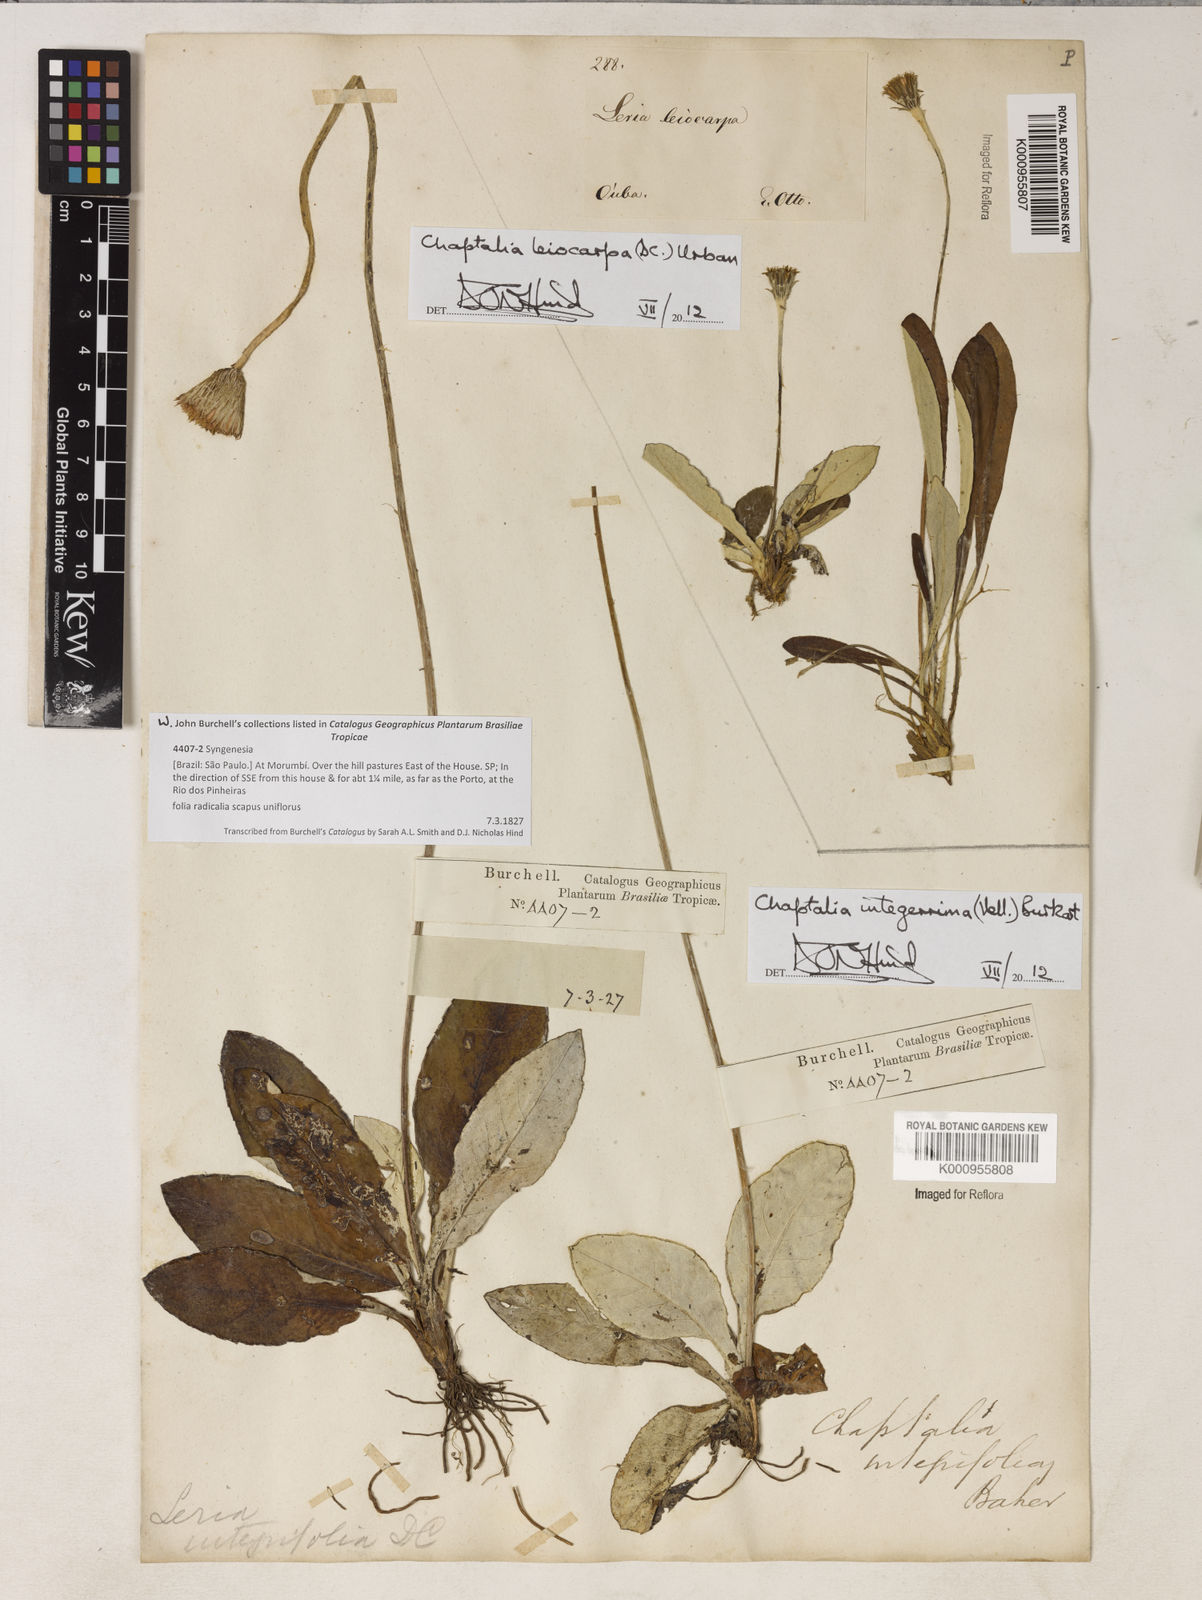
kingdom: Plantae
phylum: Tracheophyta
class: Magnoliopsida
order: Asterales
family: Asteraceae
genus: Chaptalia
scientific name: Chaptalia integerrima
